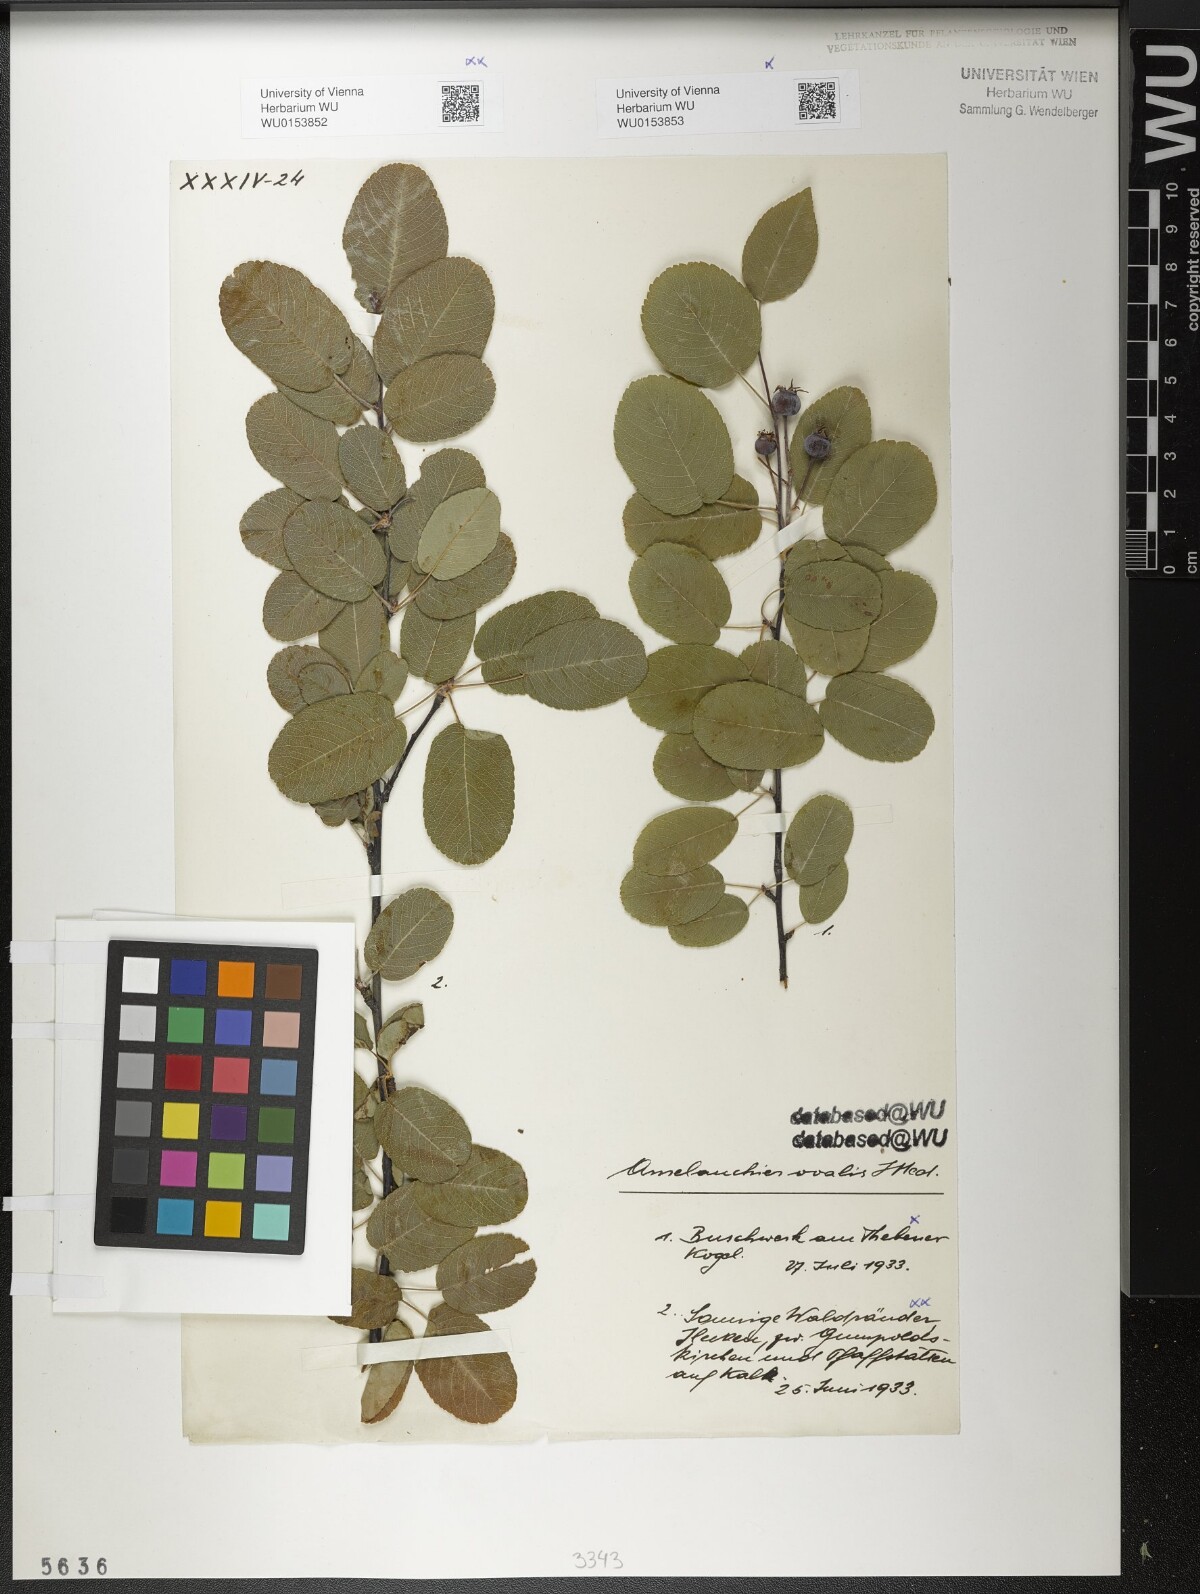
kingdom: Plantae
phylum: Tracheophyta
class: Magnoliopsida
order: Rosales
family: Rosaceae
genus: Amelanchier
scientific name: Amelanchier ovalis
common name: Serviceberry
